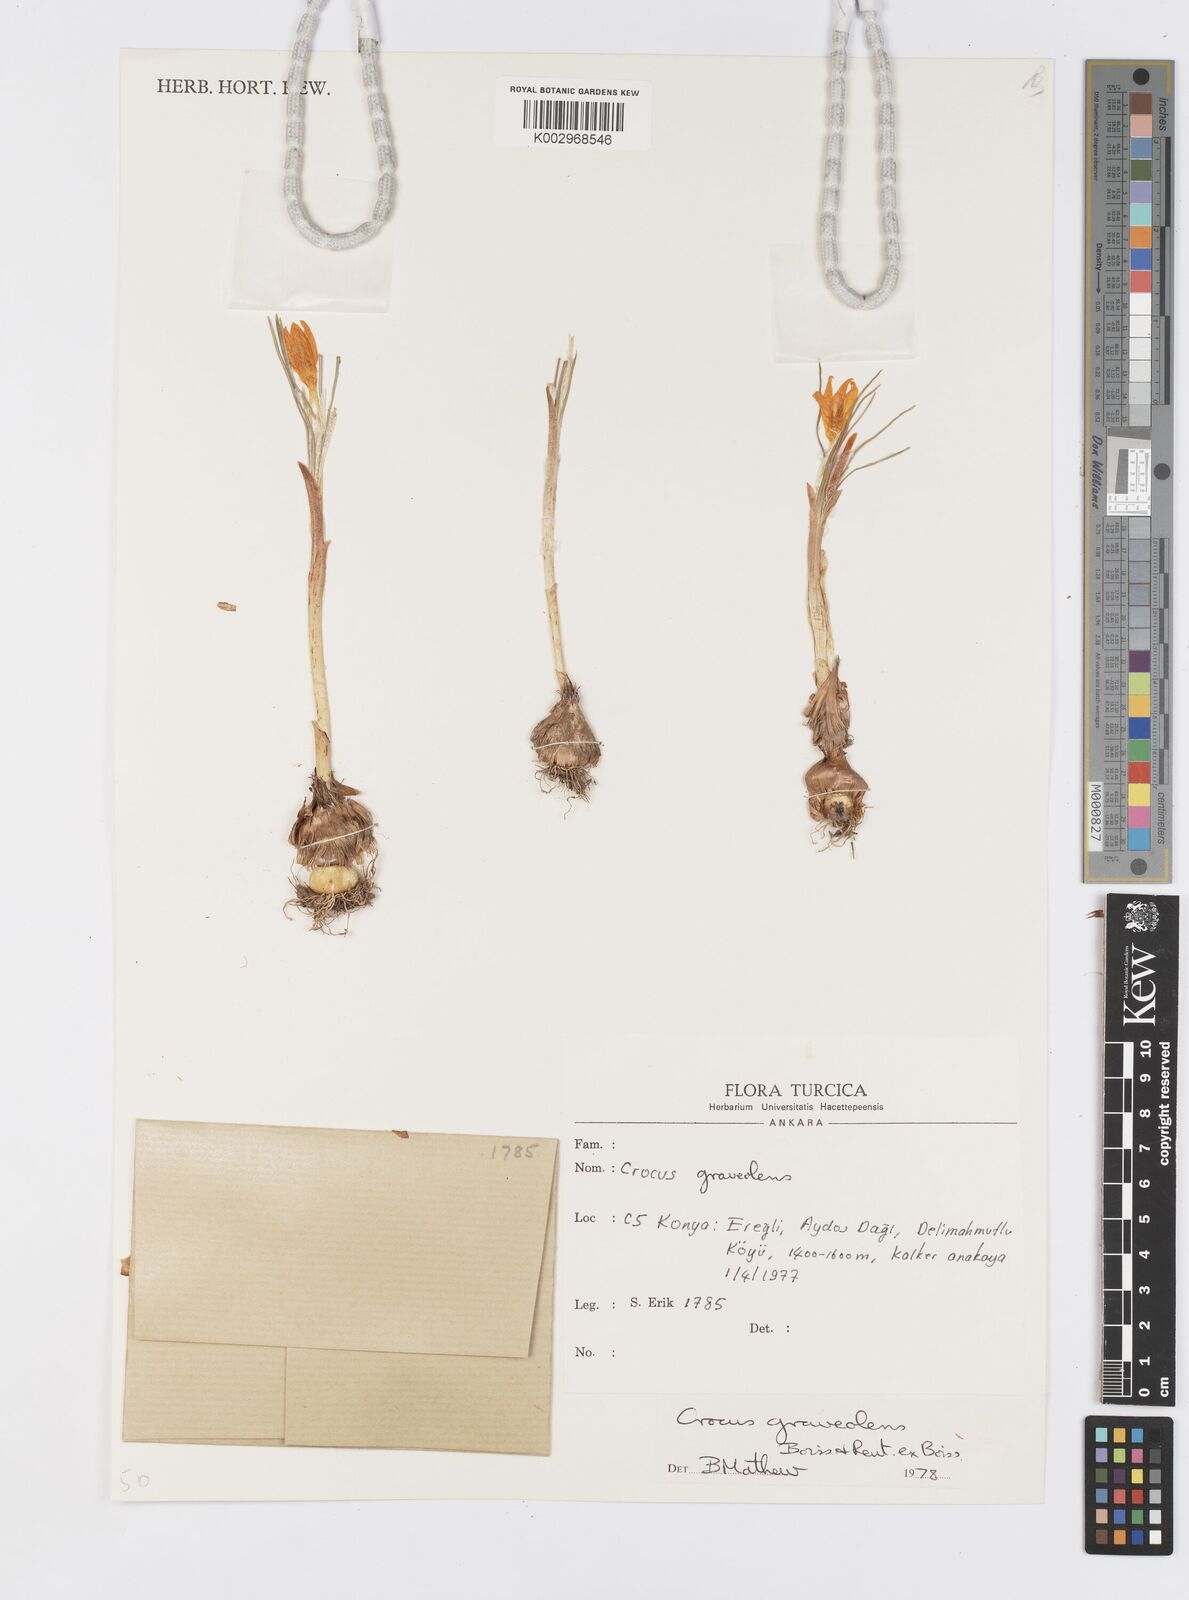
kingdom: Plantae
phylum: Tracheophyta
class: Liliopsida
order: Asparagales
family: Iridaceae
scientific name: Iridaceae
